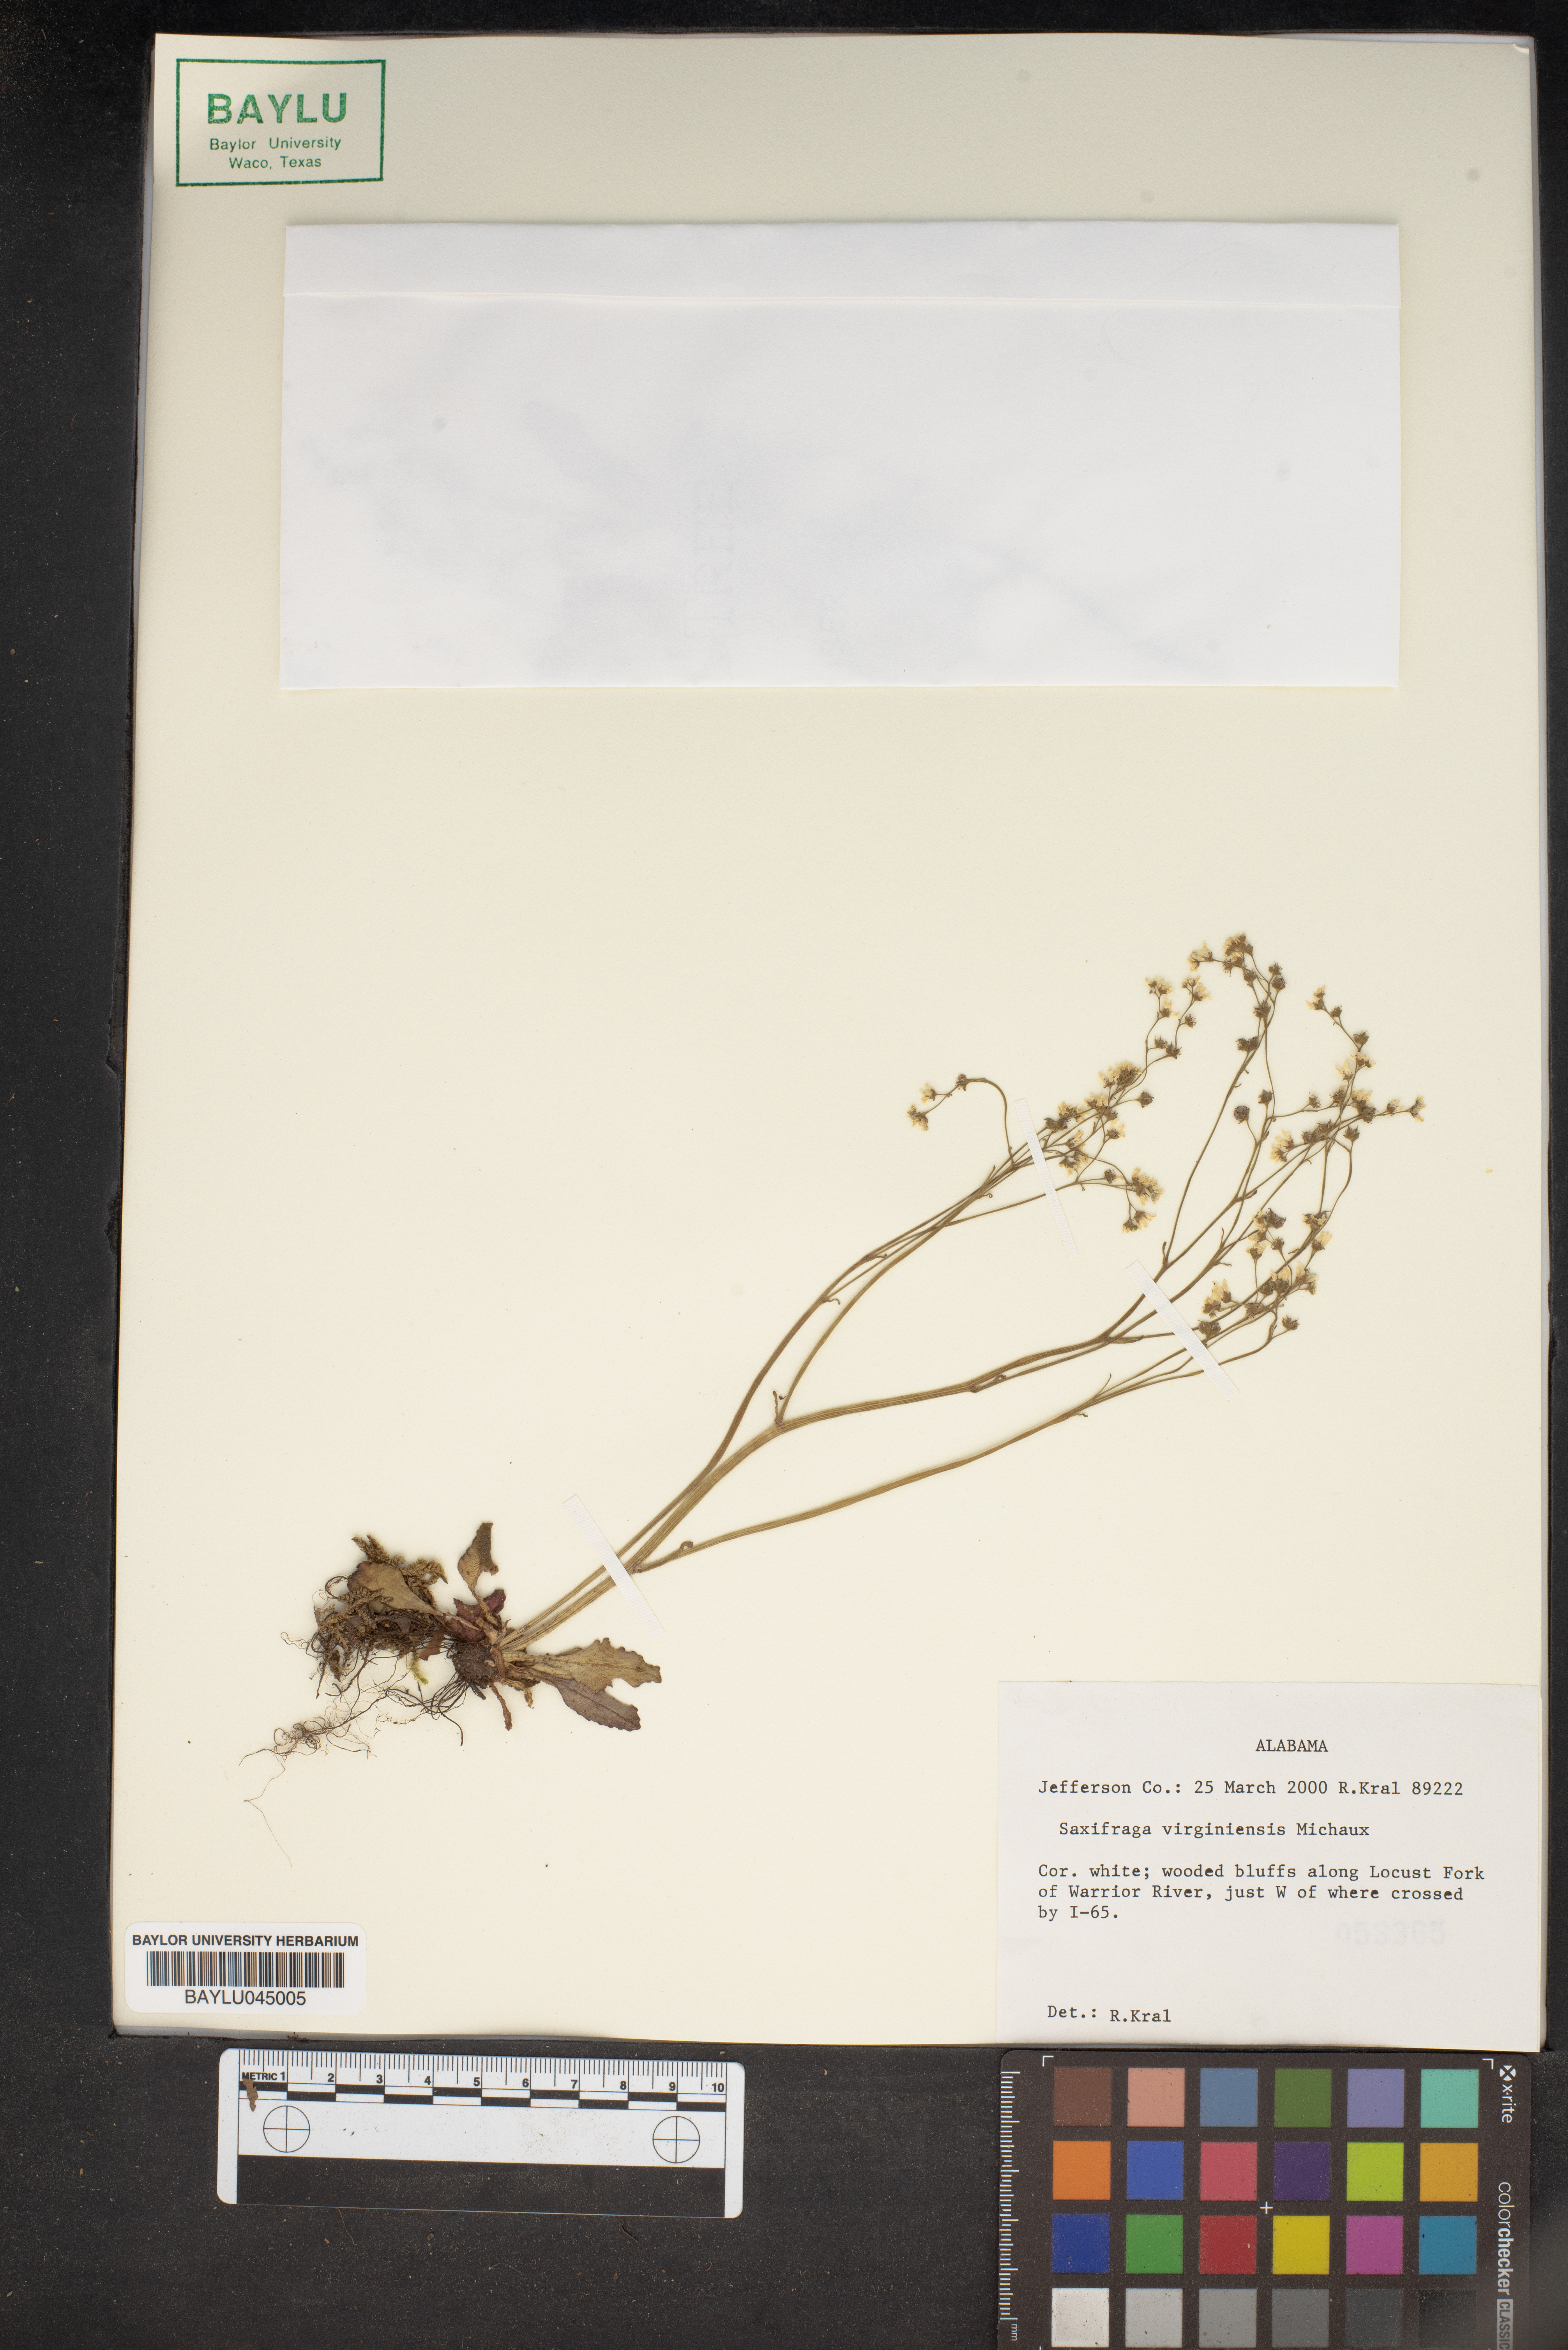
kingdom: Plantae
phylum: Tracheophyta
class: Magnoliopsida
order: Saxifragales
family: Saxifragaceae
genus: Micranthes
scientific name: Micranthes virginiensis
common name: Early saxifrage
